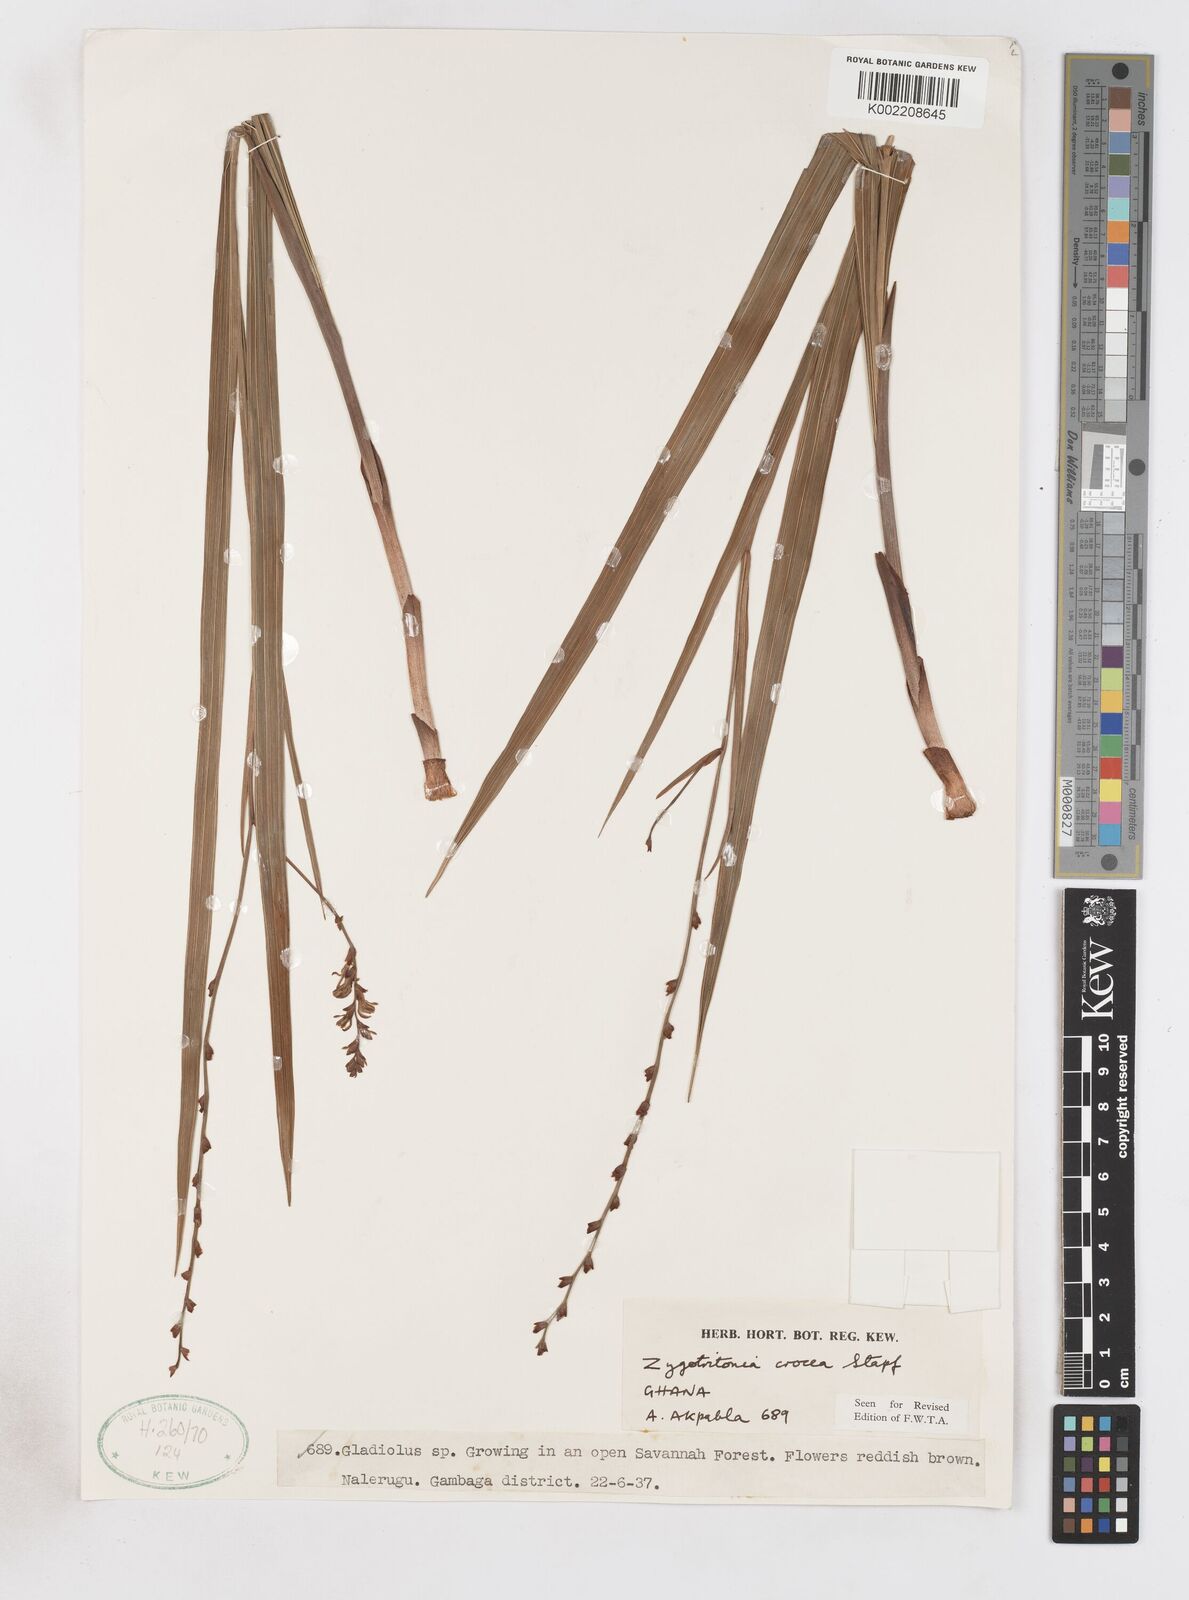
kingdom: Plantae
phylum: Tracheophyta
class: Liliopsida
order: Asparagales
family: Iridaceae
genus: Savannosiphon
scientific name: Savannosiphon
